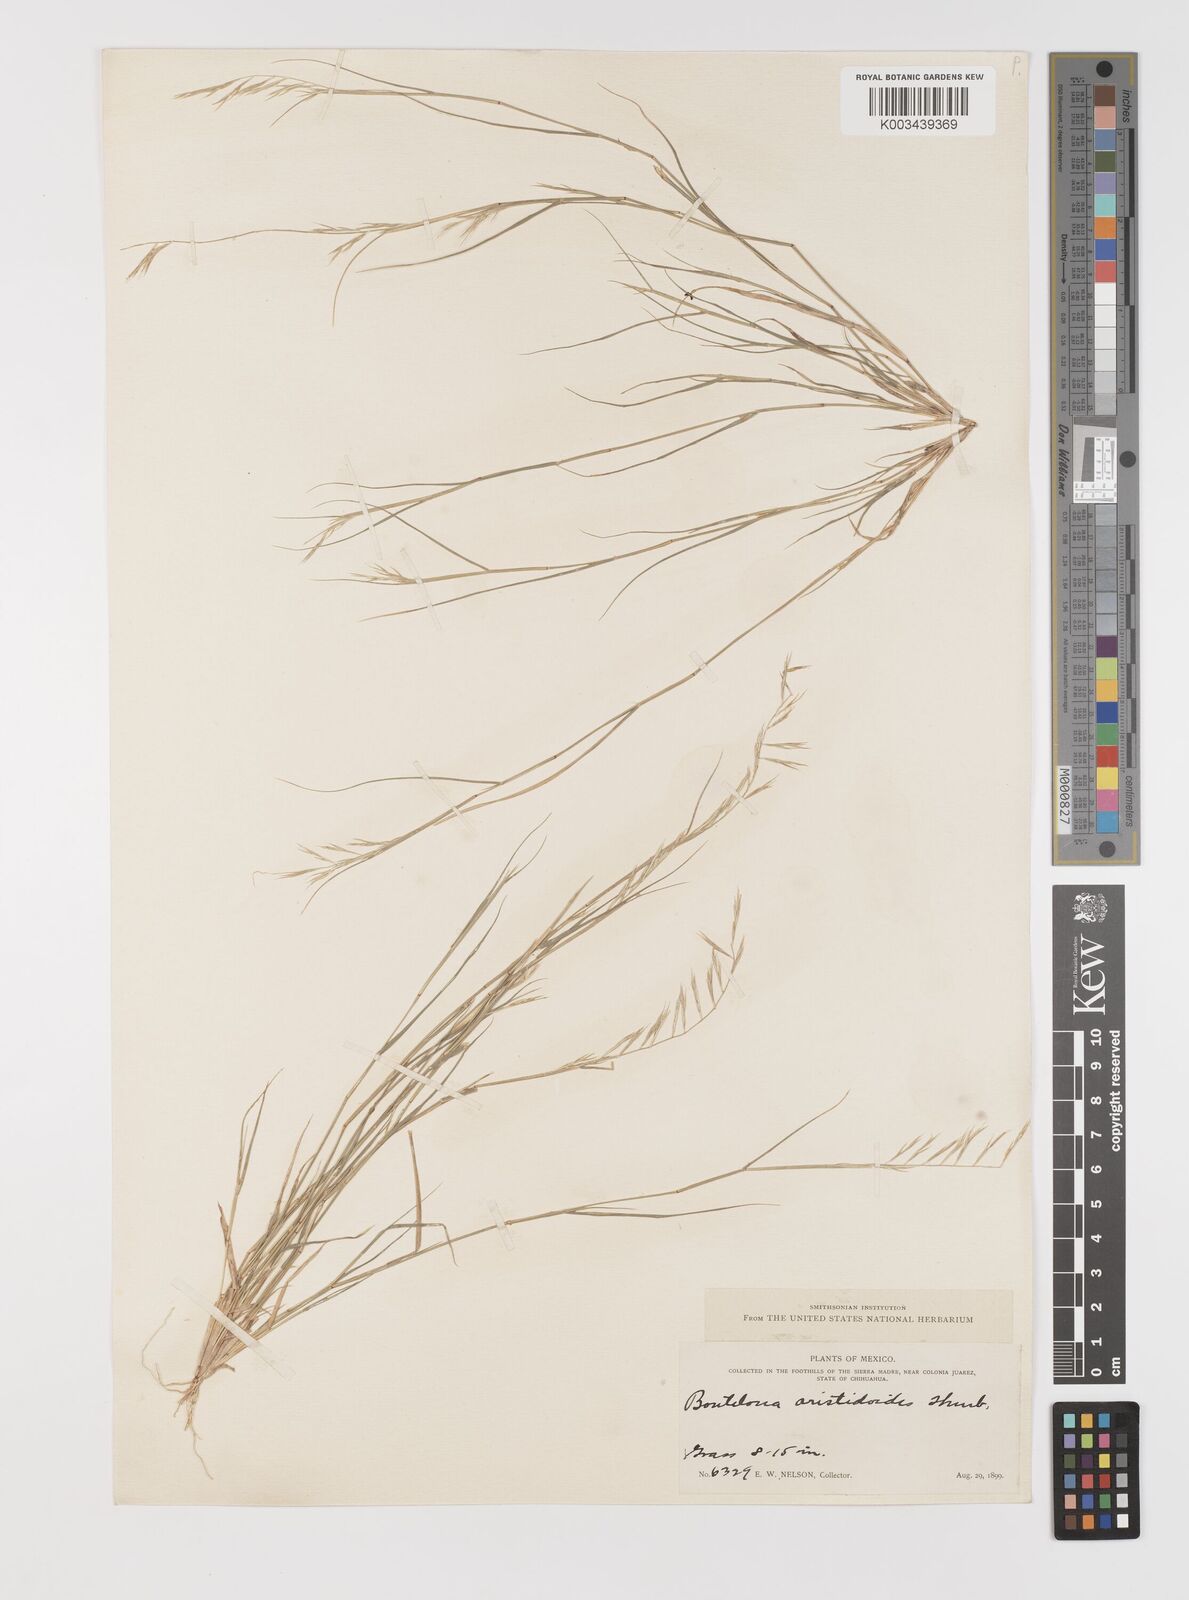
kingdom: Plantae
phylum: Tracheophyta
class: Liliopsida
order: Poales
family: Poaceae
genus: Bouteloua
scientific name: Bouteloua aristidoides
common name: Needle grama
